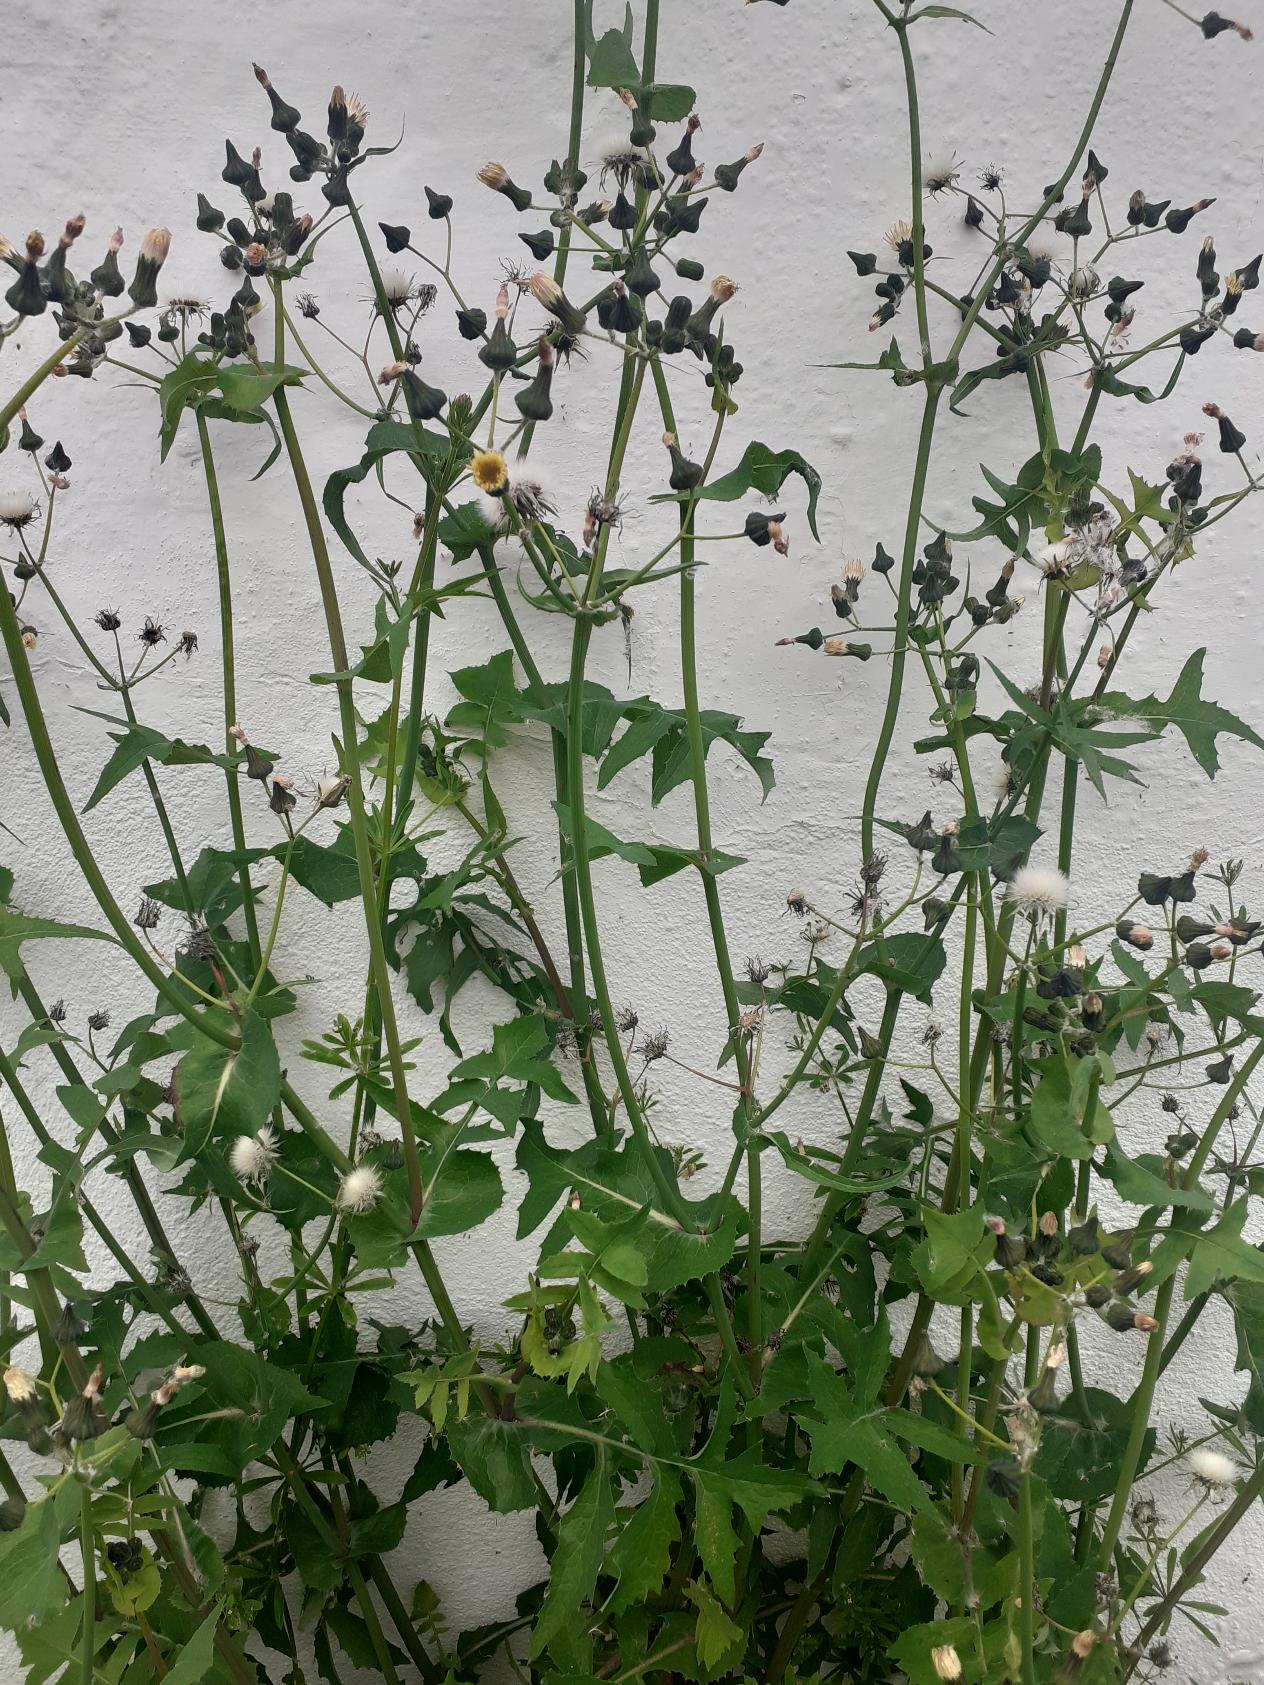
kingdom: Plantae
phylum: Tracheophyta
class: Magnoliopsida
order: Asterales
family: Asteraceae
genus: Sonchus
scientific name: Sonchus oleraceus
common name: Almindelig svinemælk
